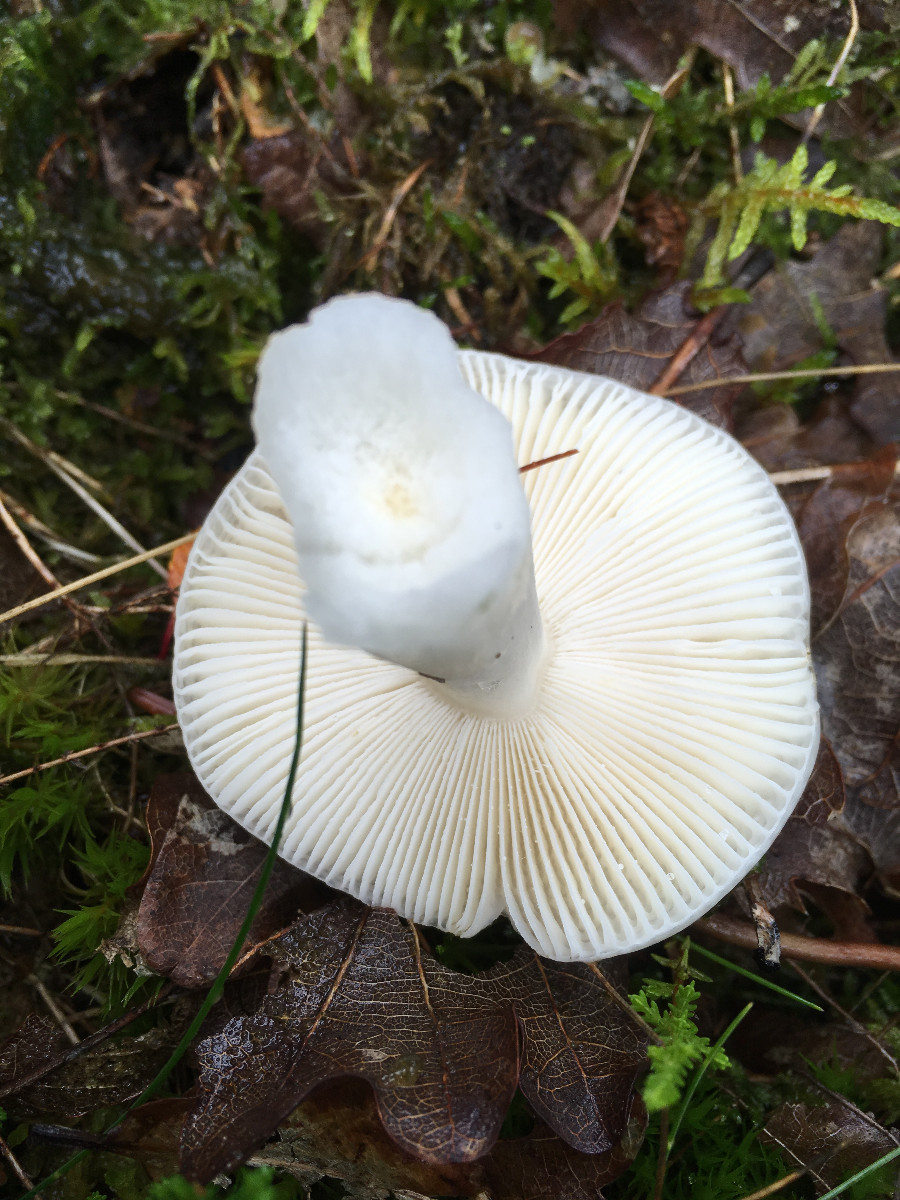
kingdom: Fungi
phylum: Basidiomycota
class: Agaricomycetes
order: Russulales
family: Russulaceae
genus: Russula
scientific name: Russula
